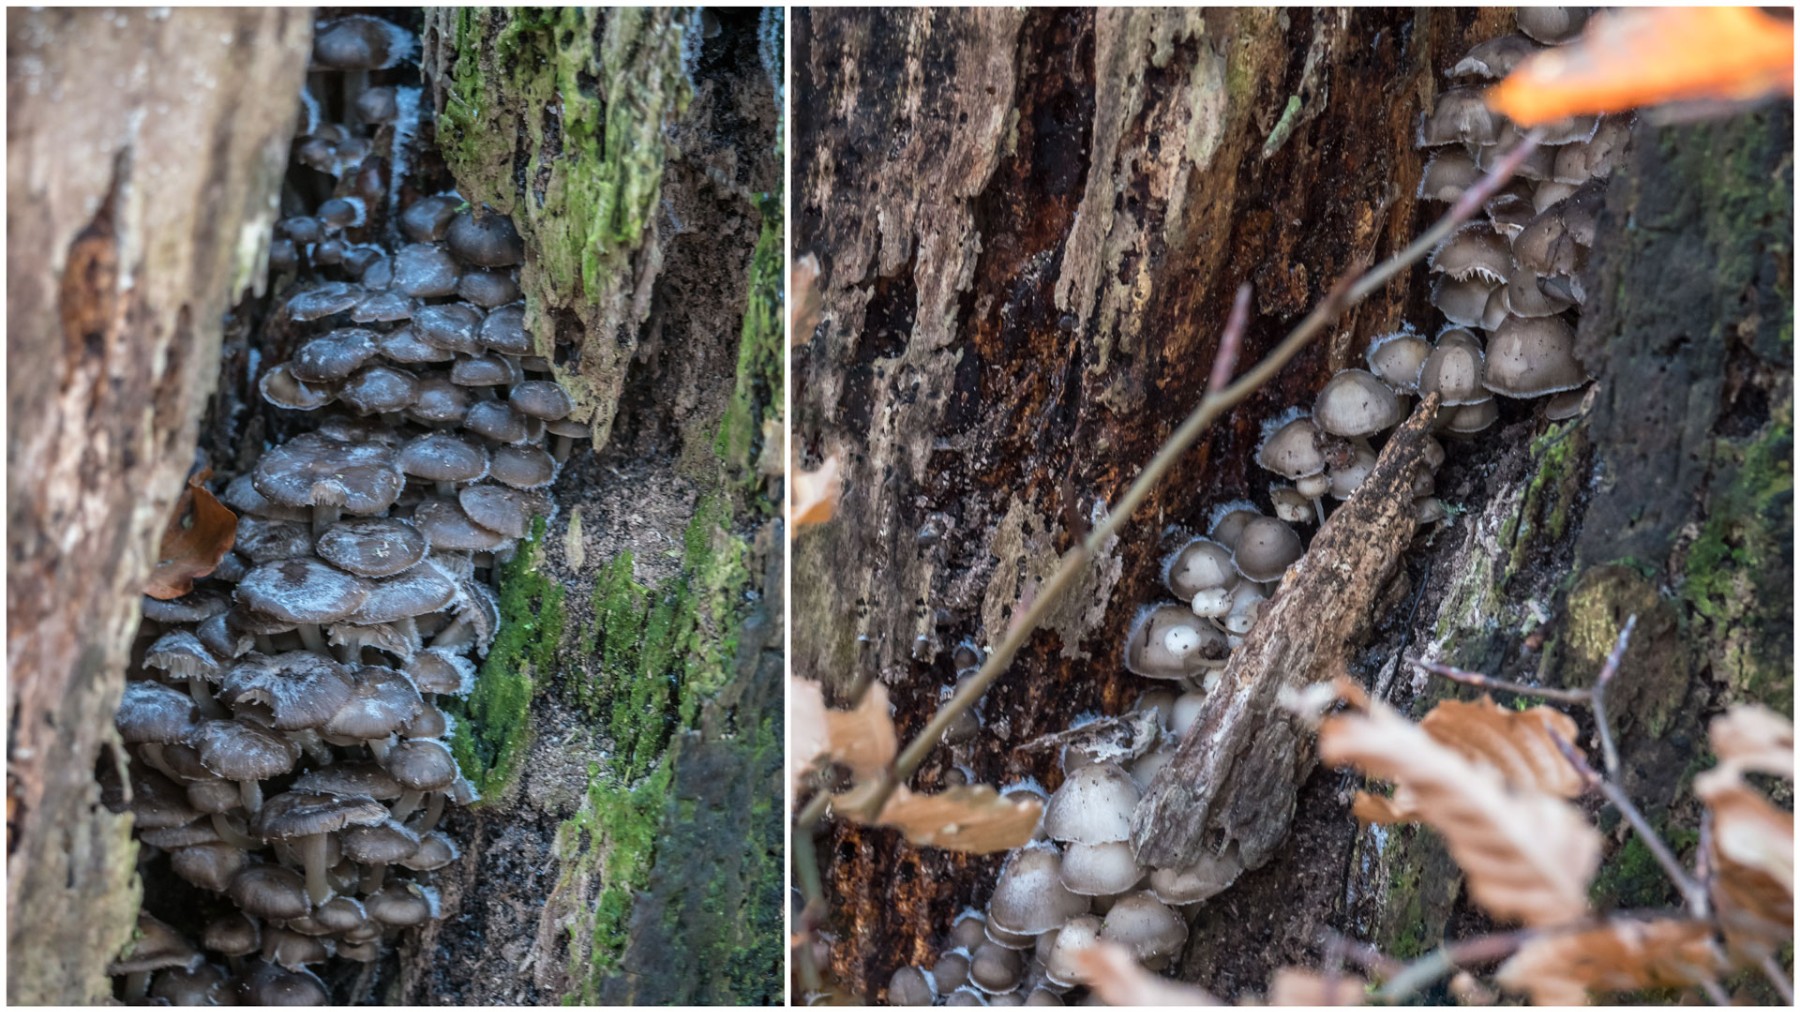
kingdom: Fungi
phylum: Basidiomycota
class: Agaricomycetes
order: Agaricales
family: Mycenaceae
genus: Mycena
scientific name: Mycena tintinnabulum
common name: vinter-huesvamp
